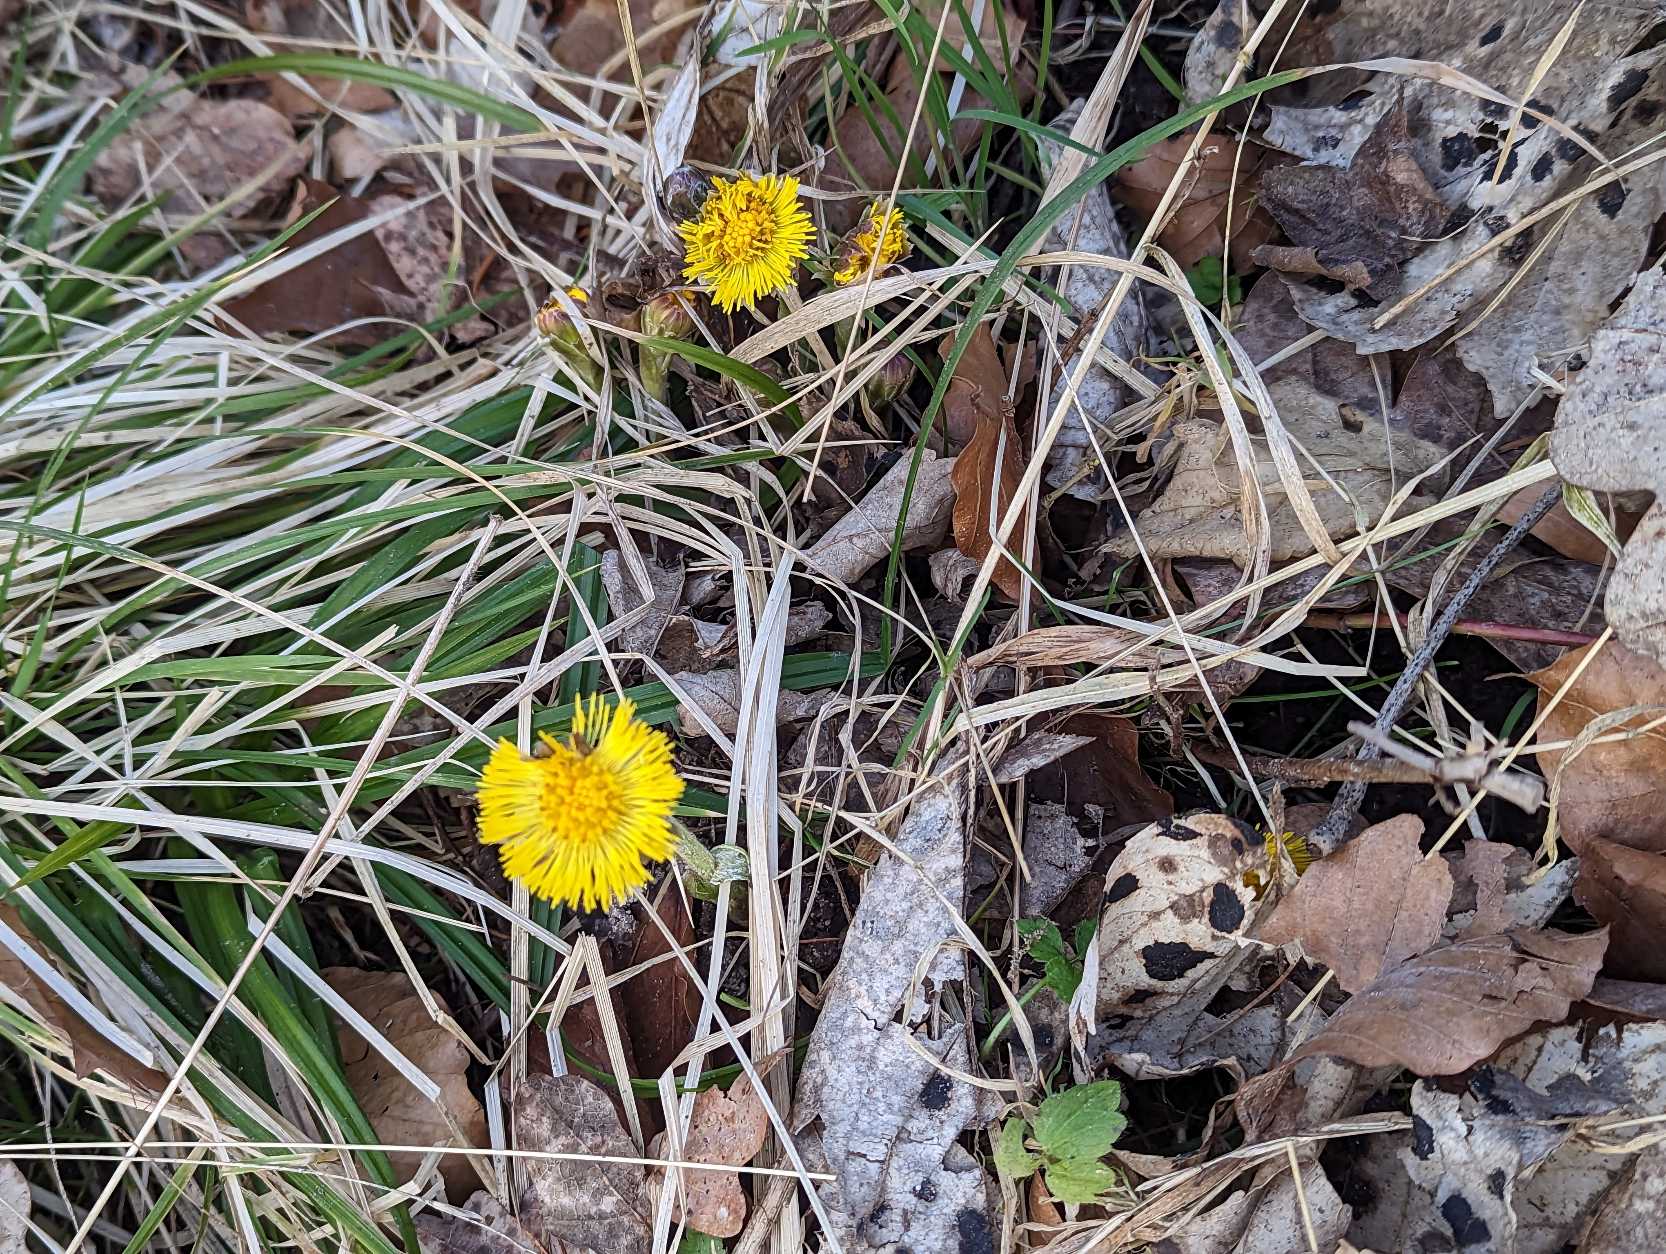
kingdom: Plantae
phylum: Tracheophyta
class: Magnoliopsida
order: Asterales
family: Asteraceae
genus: Tussilago
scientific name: Tussilago farfara
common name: Følfod
